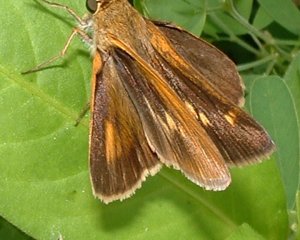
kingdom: Animalia
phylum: Arthropoda
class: Insecta
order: Lepidoptera
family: Hesperiidae
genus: Euphyes
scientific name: Euphyes dion
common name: Dion Skipper
